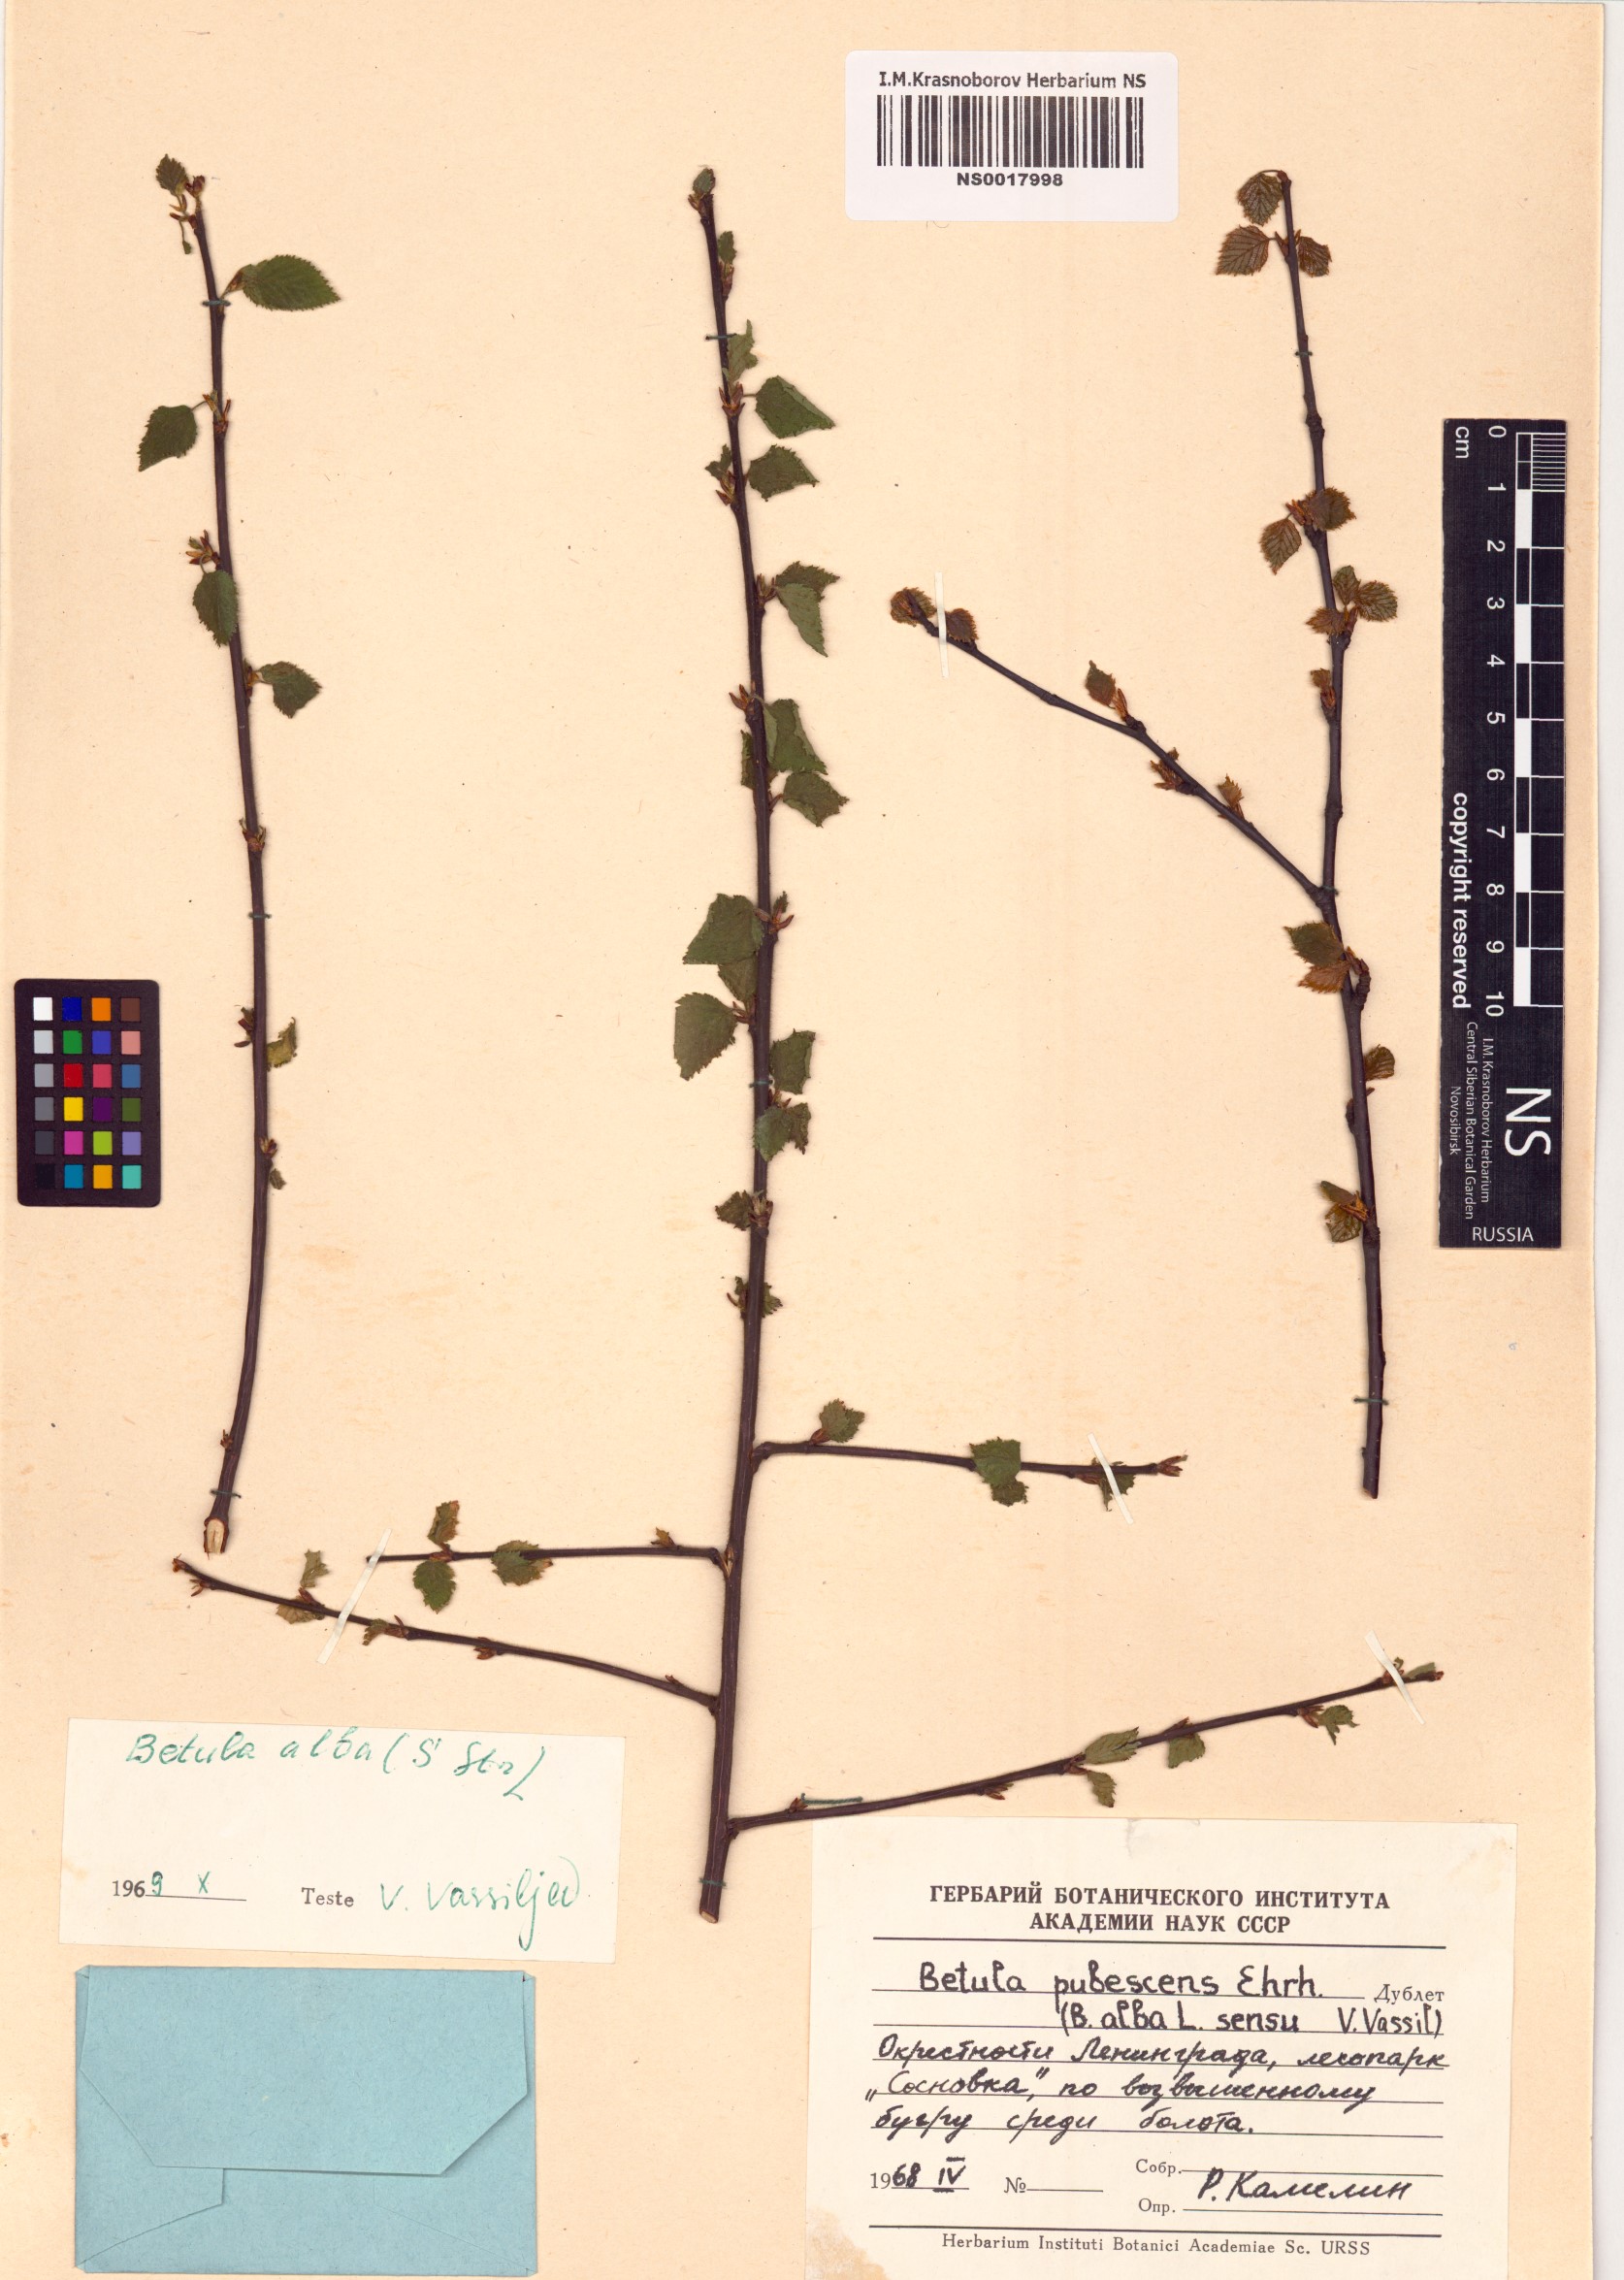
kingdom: Plantae
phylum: Tracheophyta
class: Magnoliopsida
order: Fagales
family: Betulaceae
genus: Betula
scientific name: Betula pubescens
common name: Downy birch
